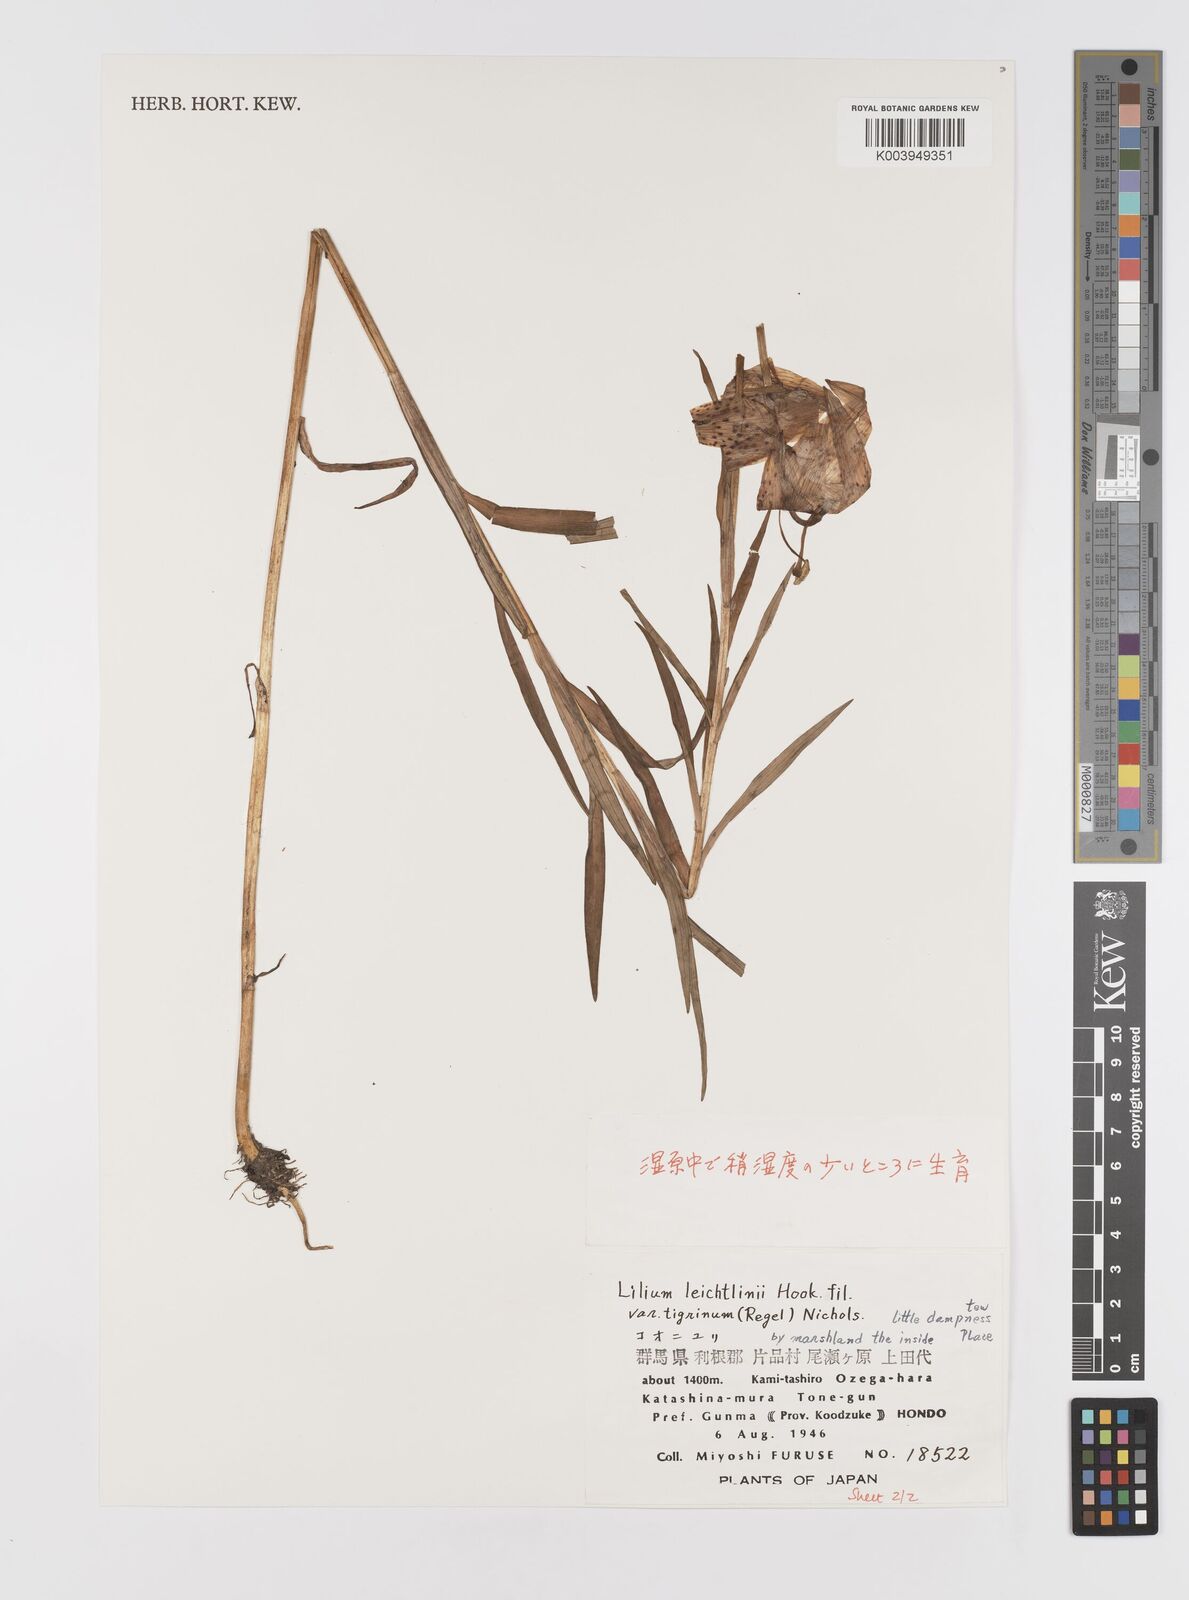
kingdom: Plantae
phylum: Tracheophyta
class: Liliopsida
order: Liliales
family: Liliaceae
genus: Lilium
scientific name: Lilium leichtlinii
